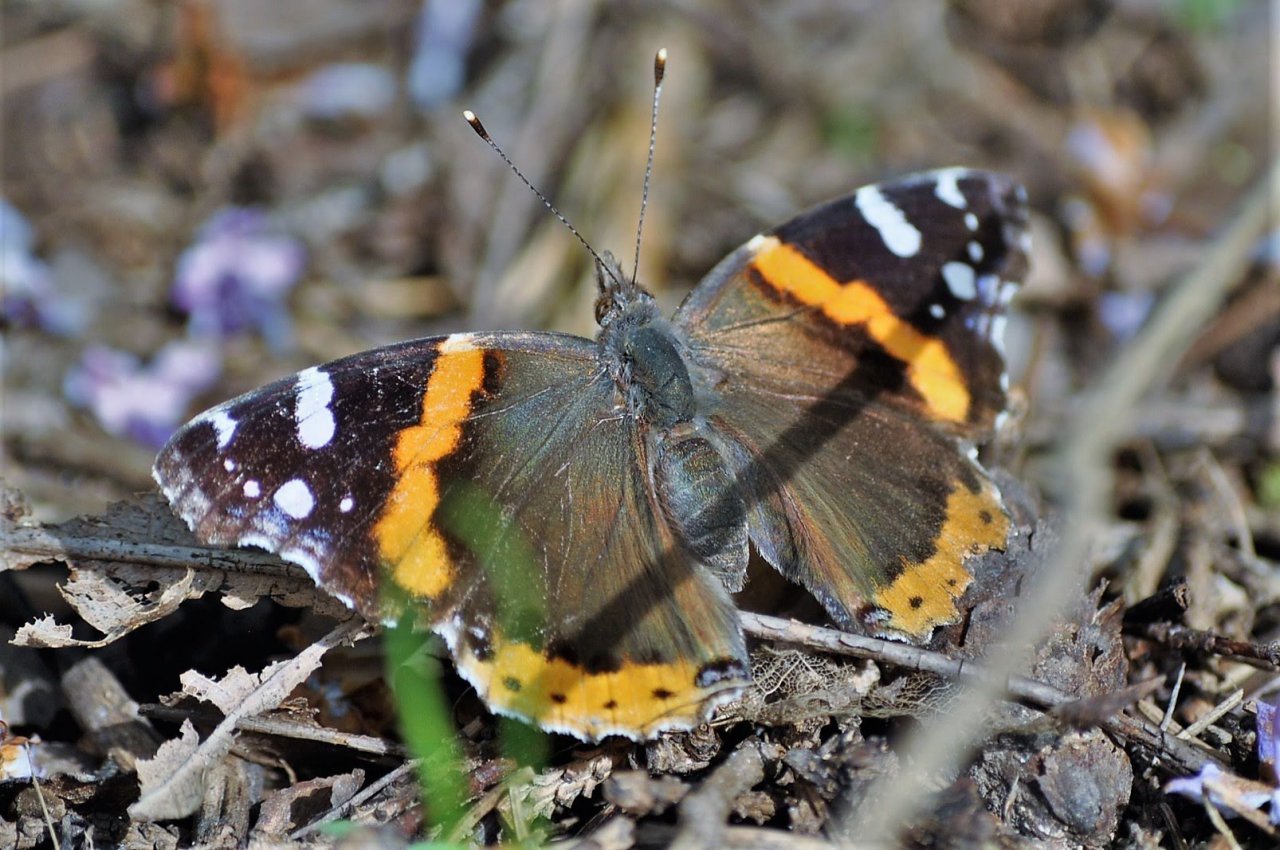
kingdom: Animalia
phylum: Arthropoda
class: Insecta
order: Lepidoptera
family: Nymphalidae
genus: Vanessa
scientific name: Vanessa atalanta
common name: Red Admiral
